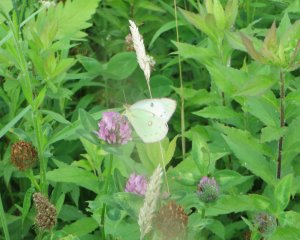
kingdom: Animalia
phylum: Arthropoda
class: Insecta
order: Lepidoptera
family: Pieridae
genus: Colias
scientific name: Colias philodice
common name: Clouded Sulphur
